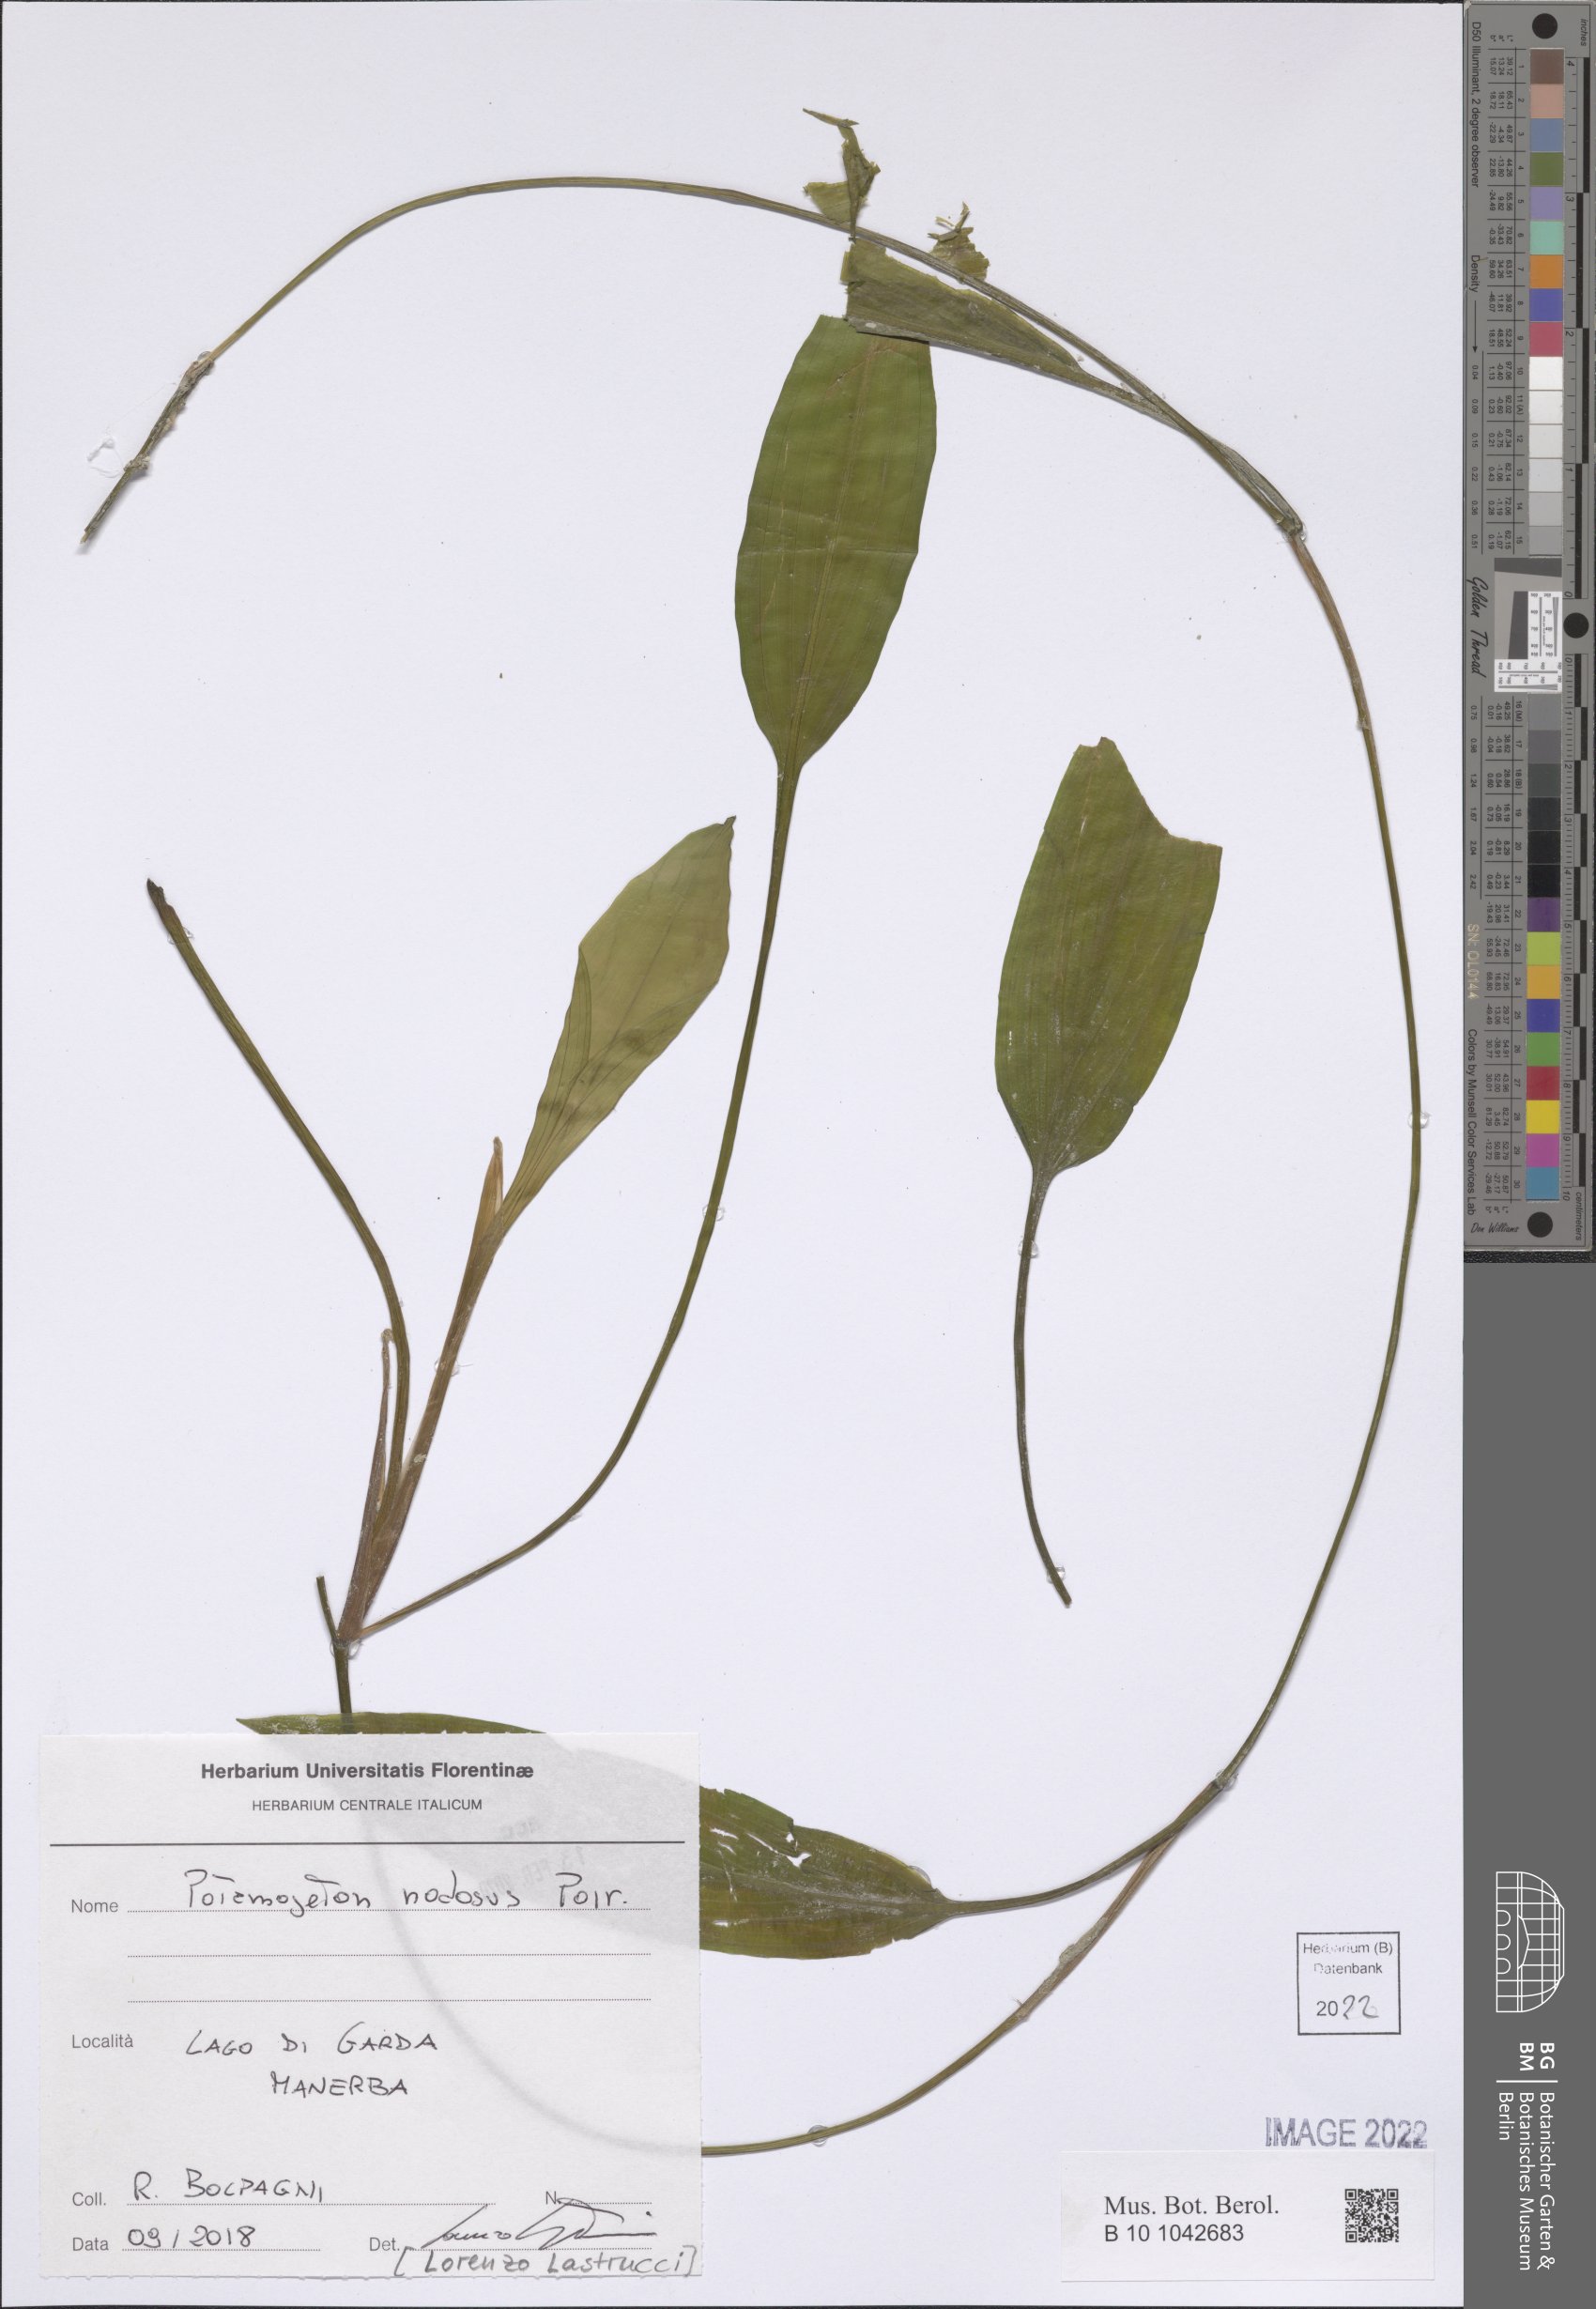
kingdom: Plantae
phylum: Tracheophyta
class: Liliopsida
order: Alismatales
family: Potamogetonaceae
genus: Potamogeton
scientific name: Potamogeton nodosus
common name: Loddon pondweed
